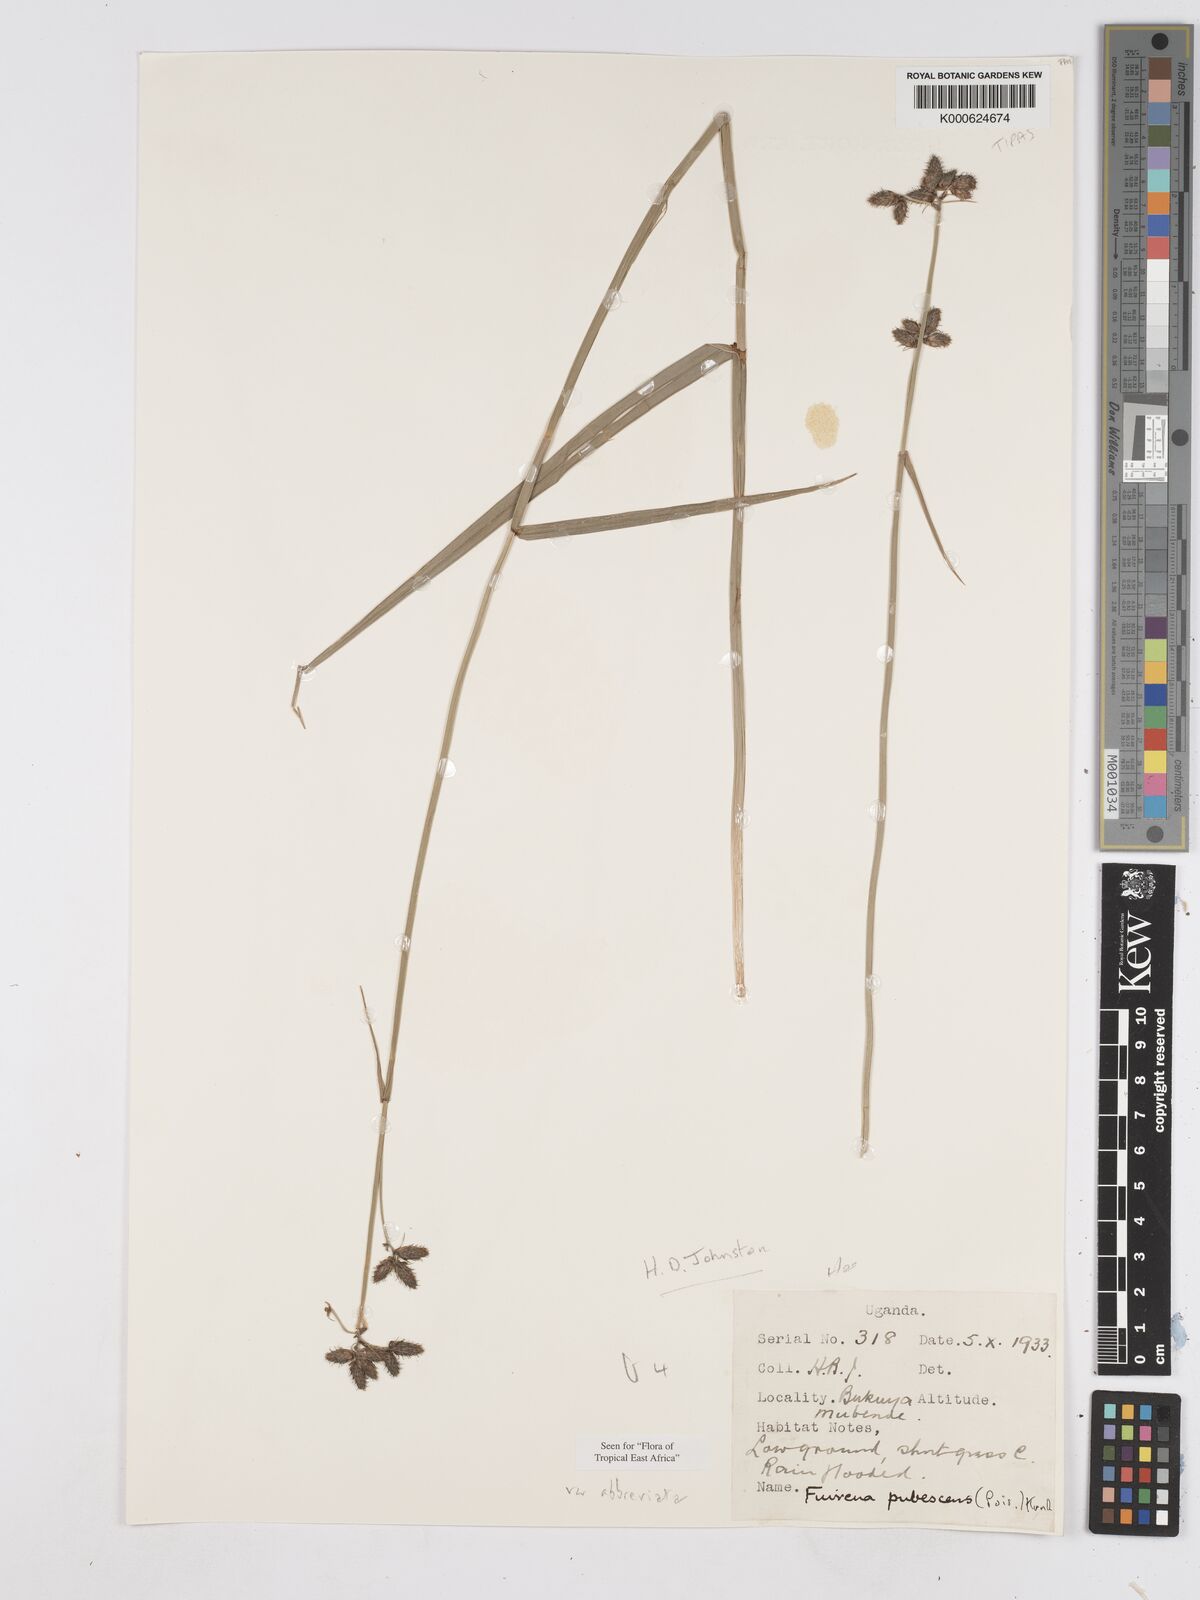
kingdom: Plantae
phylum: Tracheophyta
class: Liliopsida
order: Poales
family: Cyperaceae
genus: Fuirena
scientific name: Fuirena pubescens
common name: Hairy sedge
